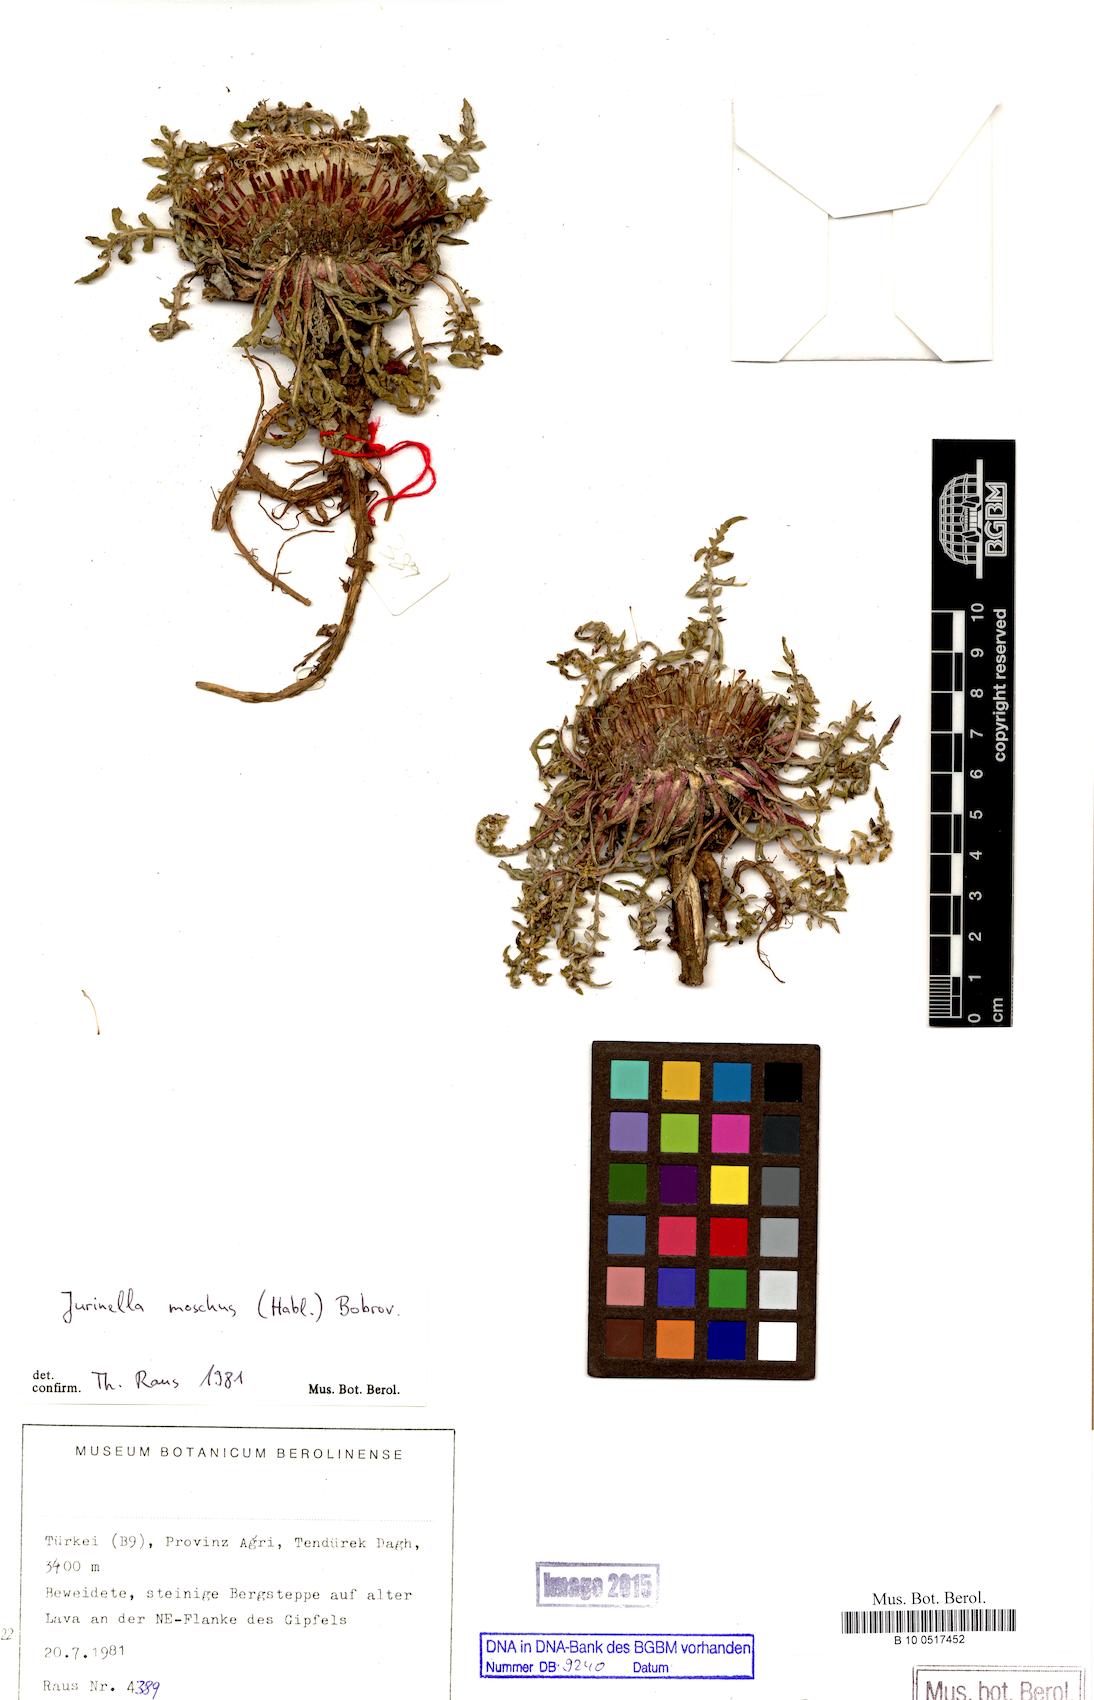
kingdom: Plantae
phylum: Tracheophyta
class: Magnoliopsida
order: Asterales
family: Asteraceae
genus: Jurinea
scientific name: Jurinea moschus
